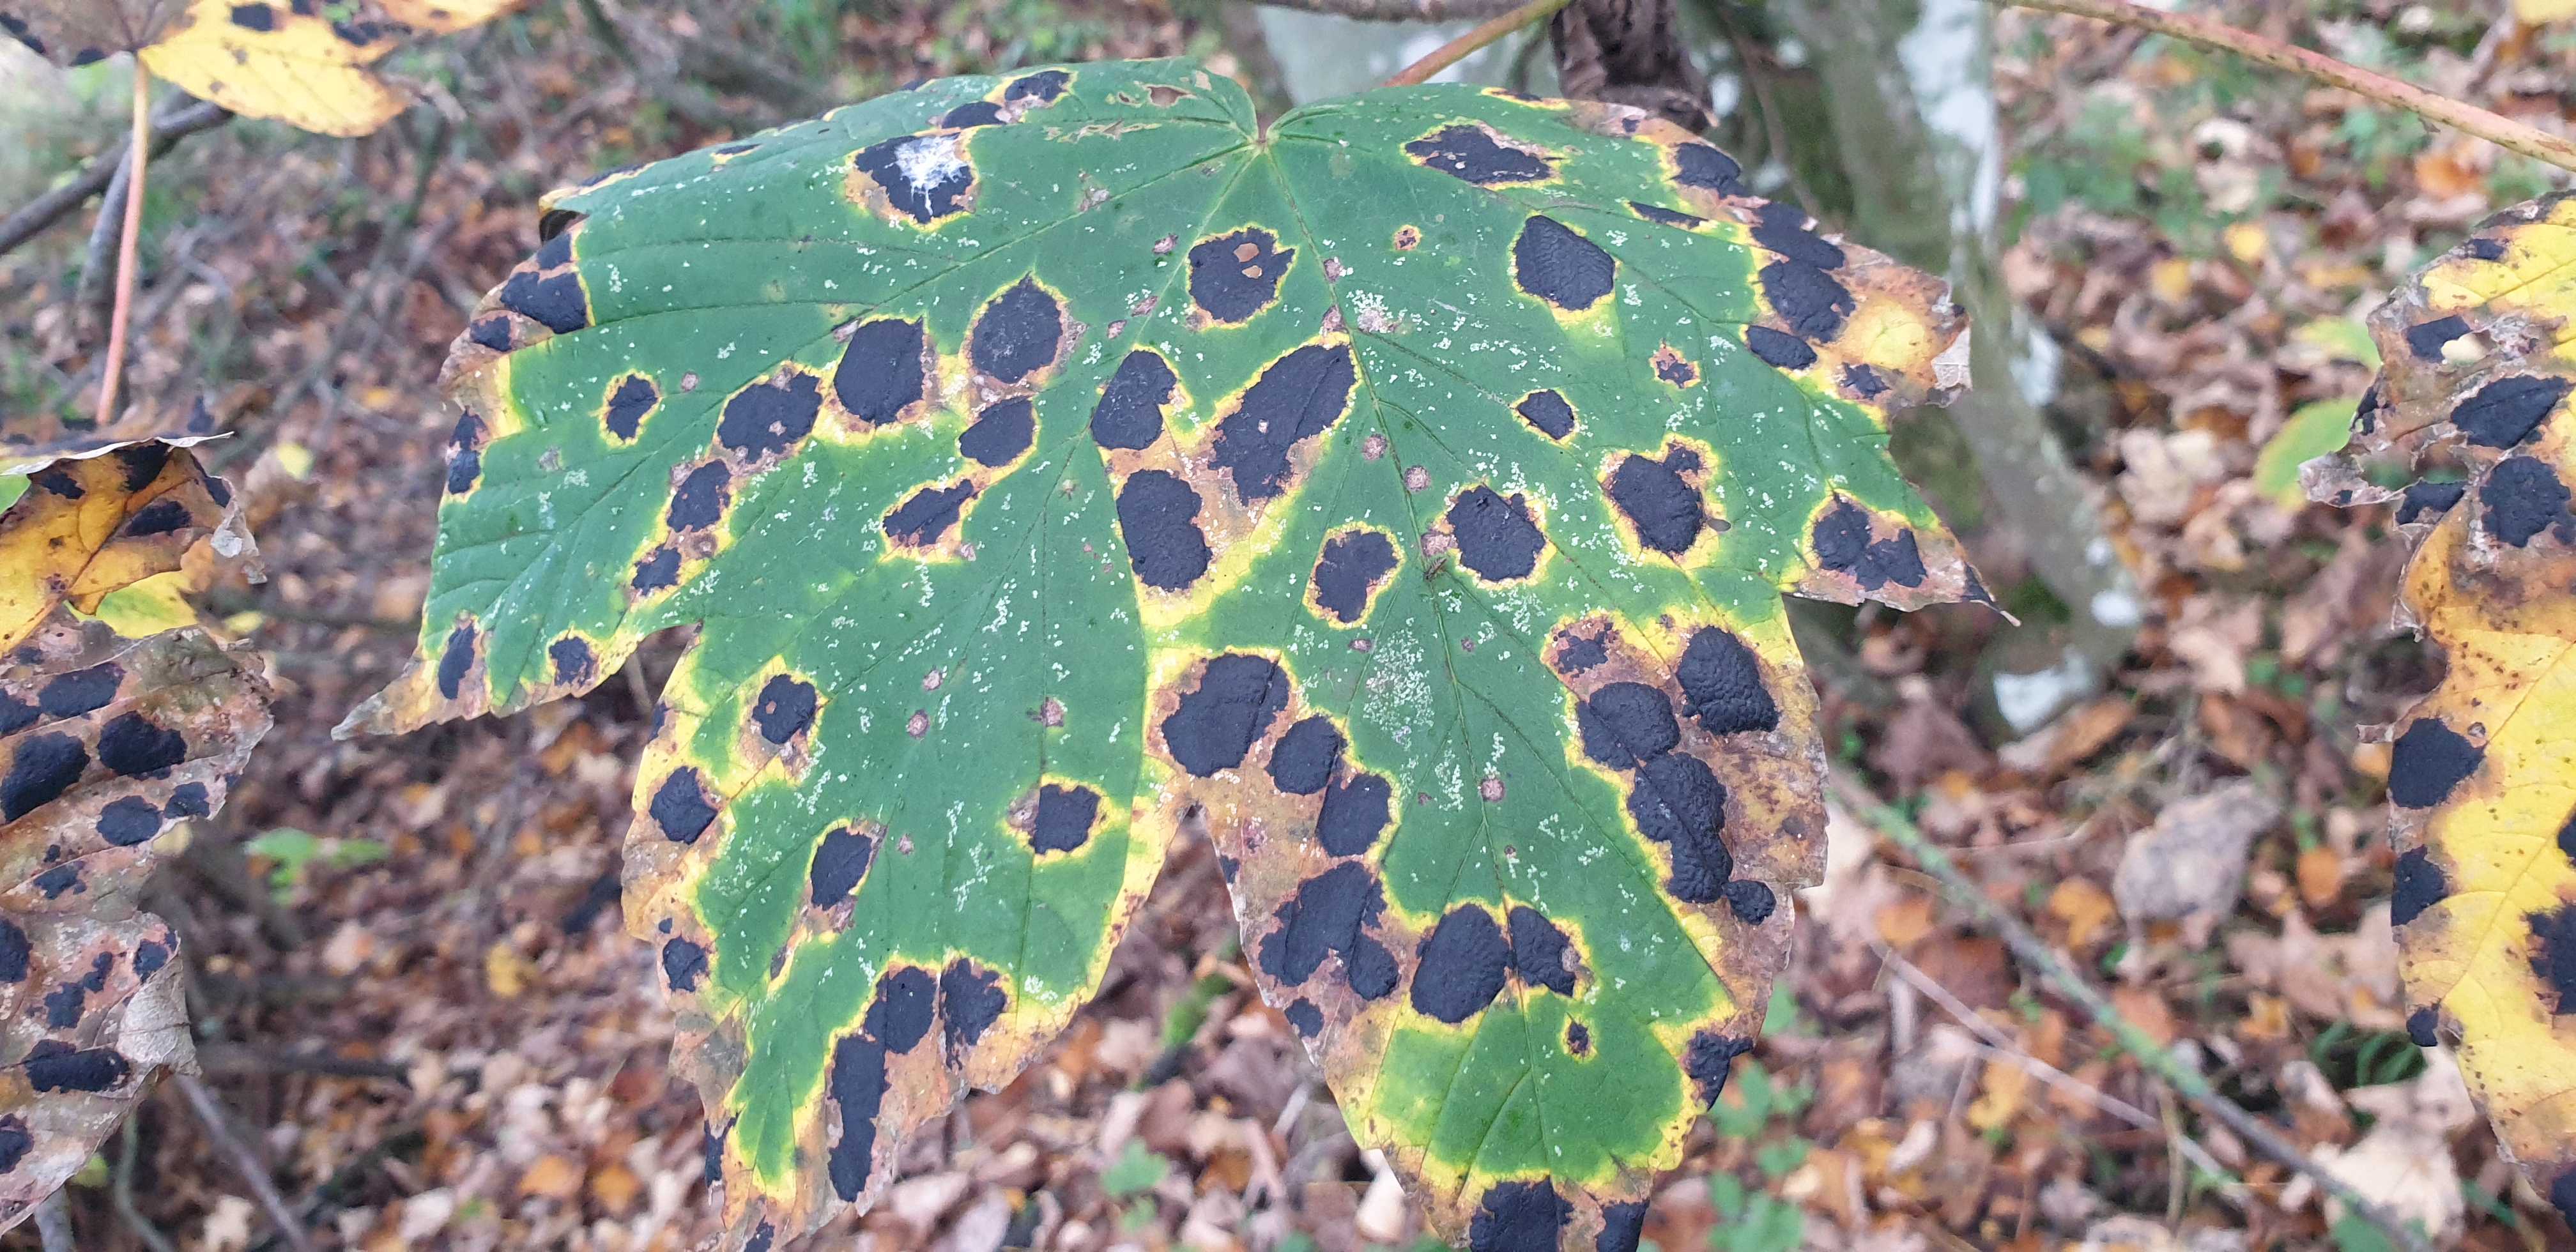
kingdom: Fungi
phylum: Ascomycota
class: Leotiomycetes
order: Rhytismatales
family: Rhytismataceae
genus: Rhytisma
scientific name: Rhytisma acerinum
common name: ahorn-rynkeplet
